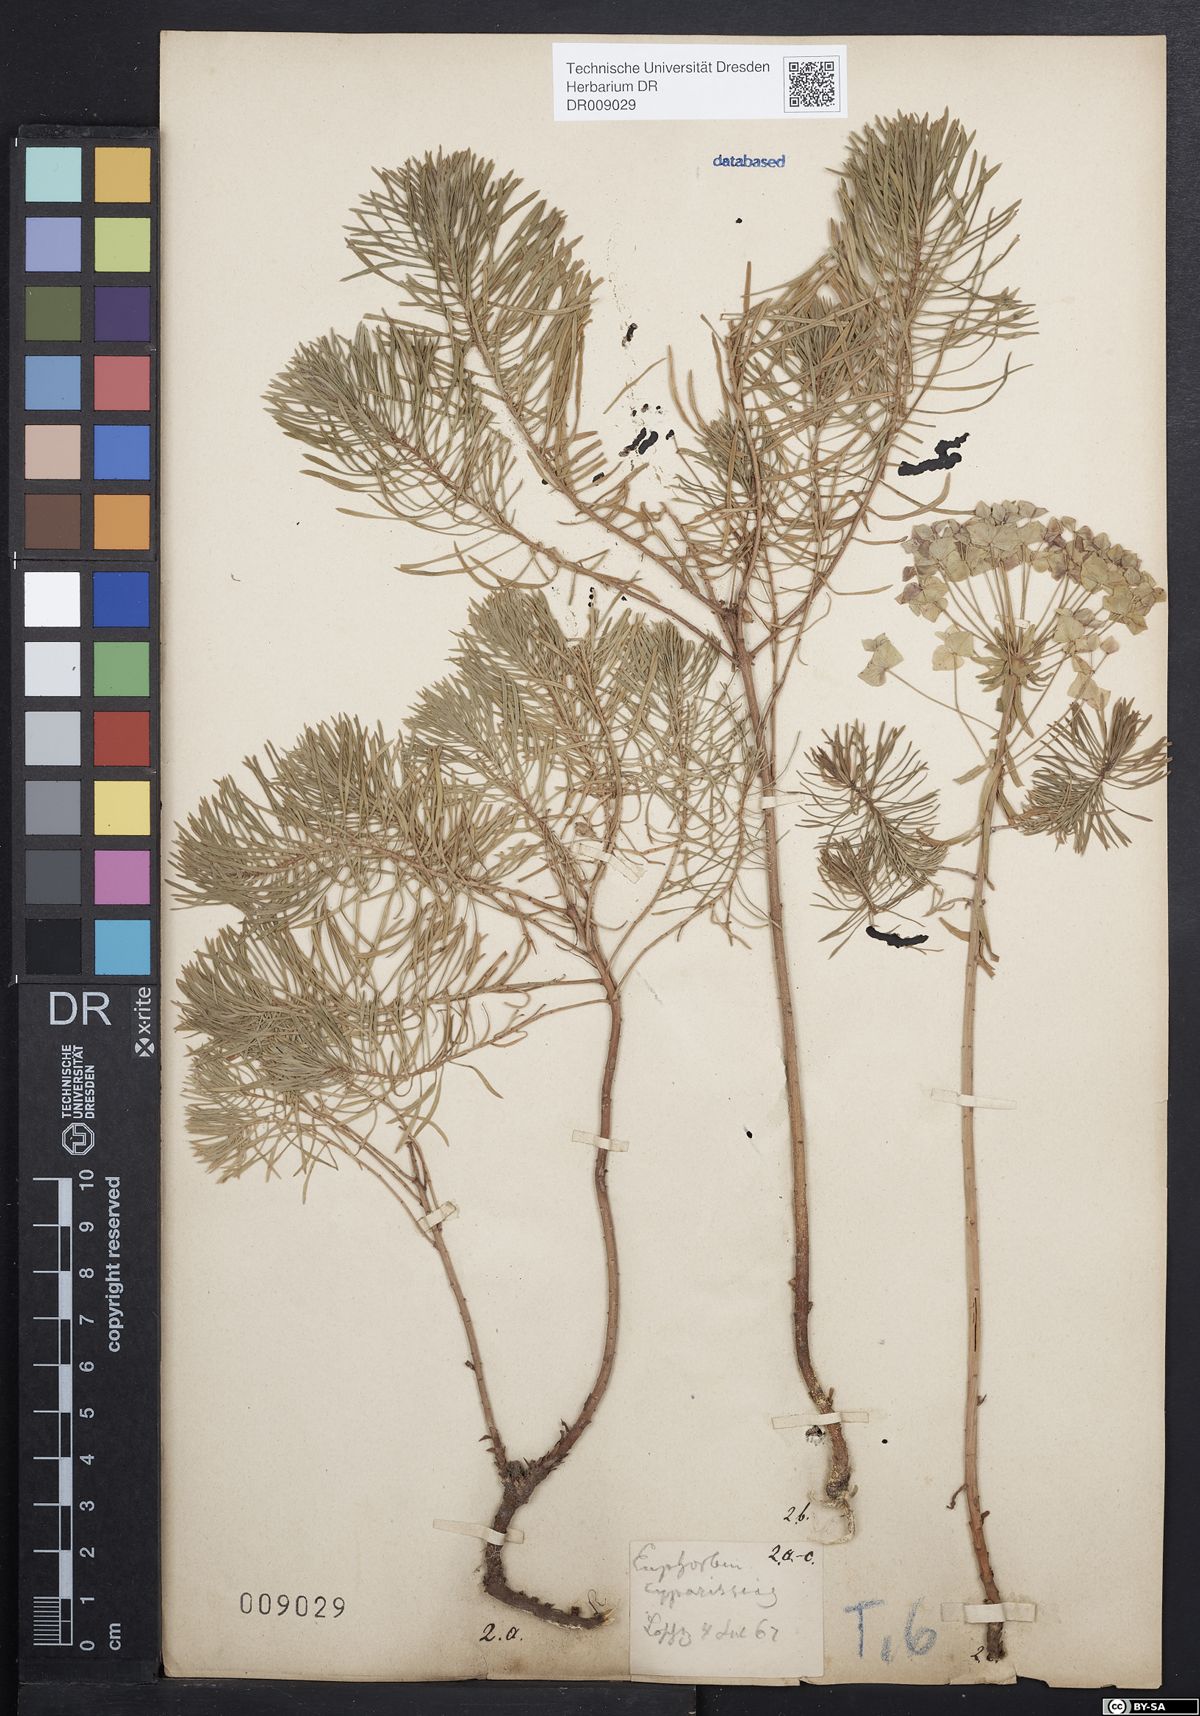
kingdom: Plantae
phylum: Tracheophyta
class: Magnoliopsida
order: Malpighiales
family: Euphorbiaceae
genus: Euphorbia
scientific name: Euphorbia cyparissias
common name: Cypress spurge
